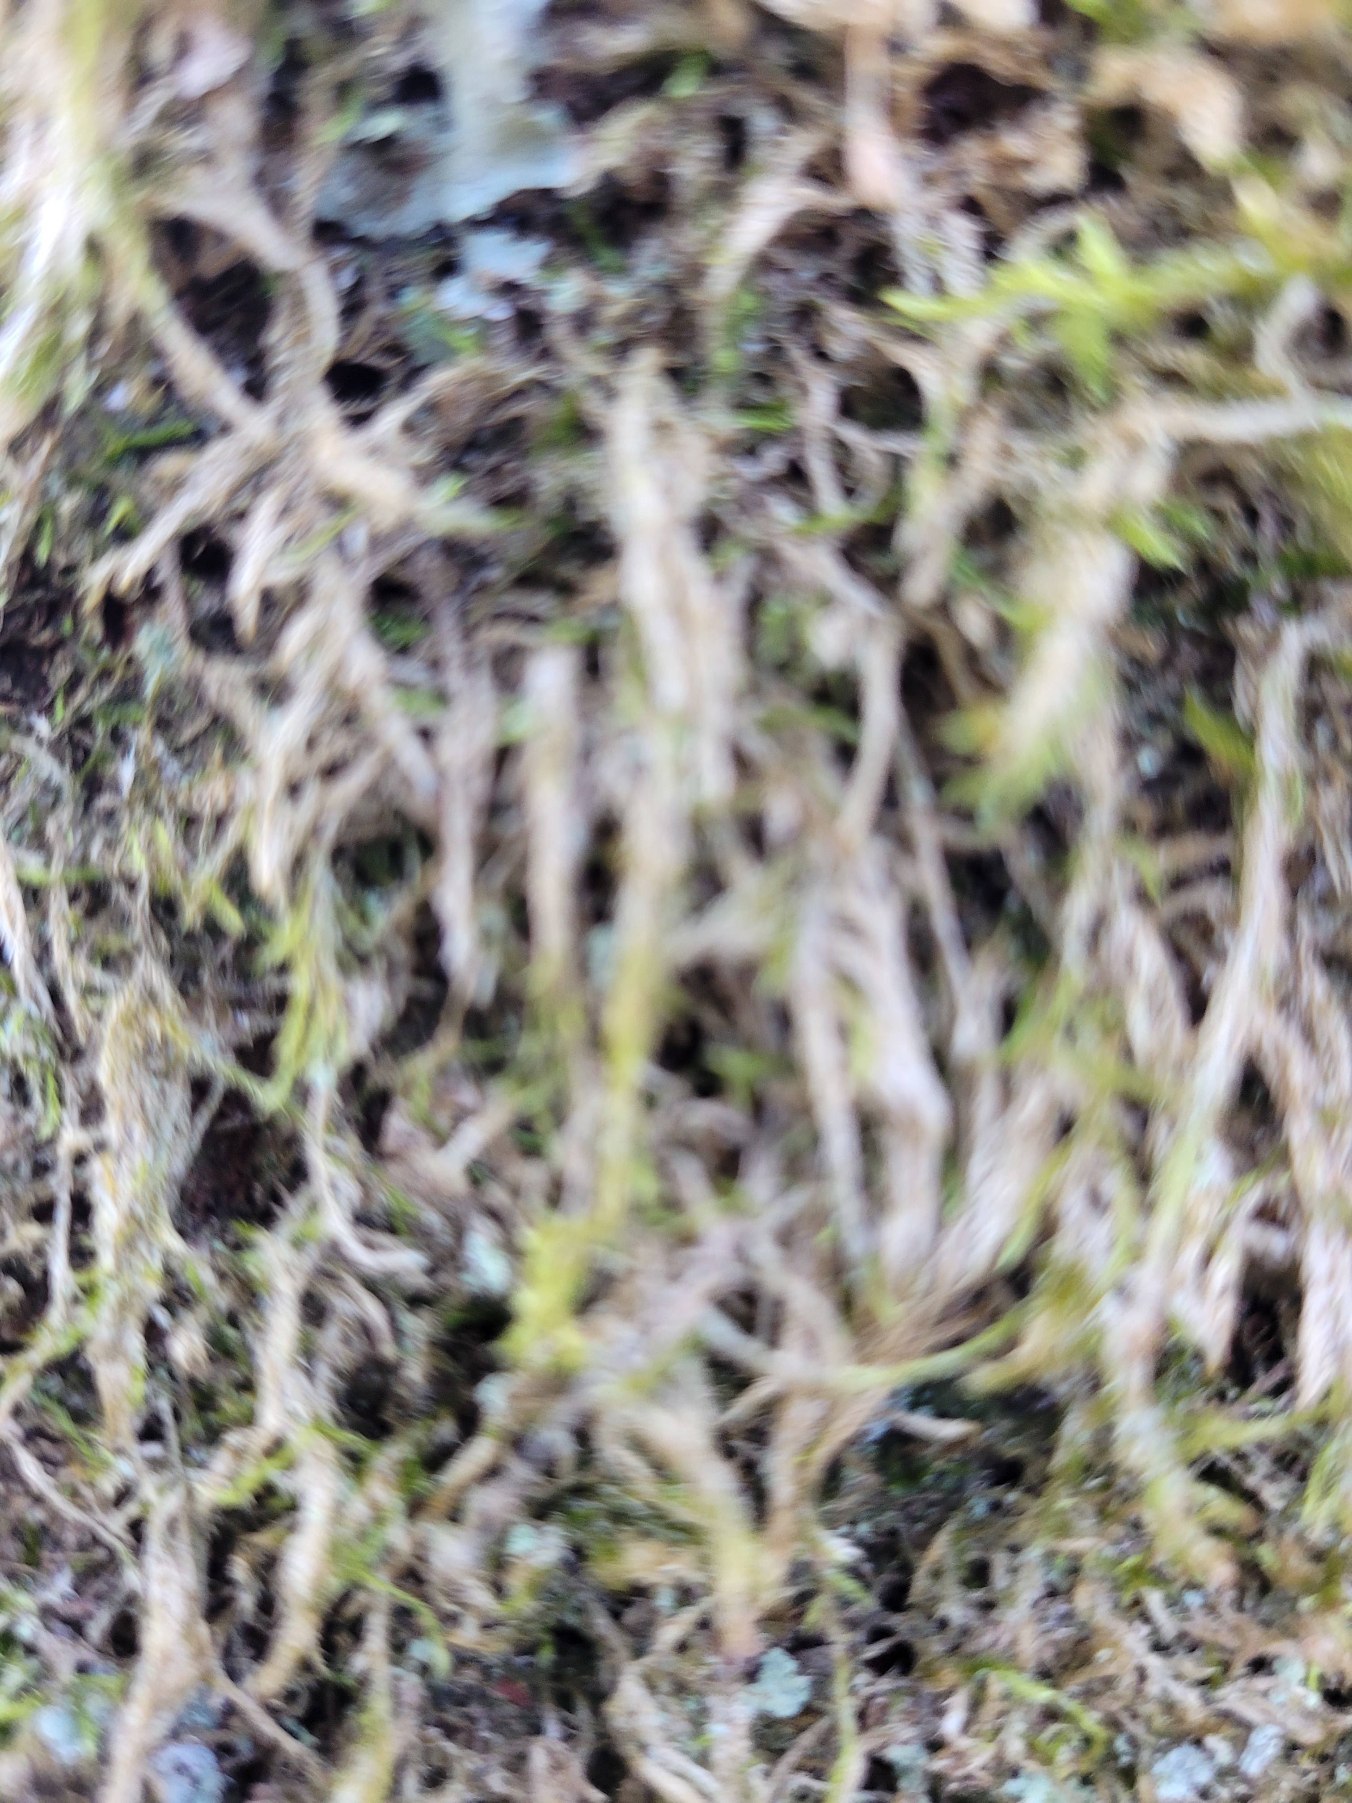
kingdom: Plantae
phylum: Bryophyta
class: Bryopsida
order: Hypnales
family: Hypnaceae
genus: Hypnum
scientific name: Hypnum
